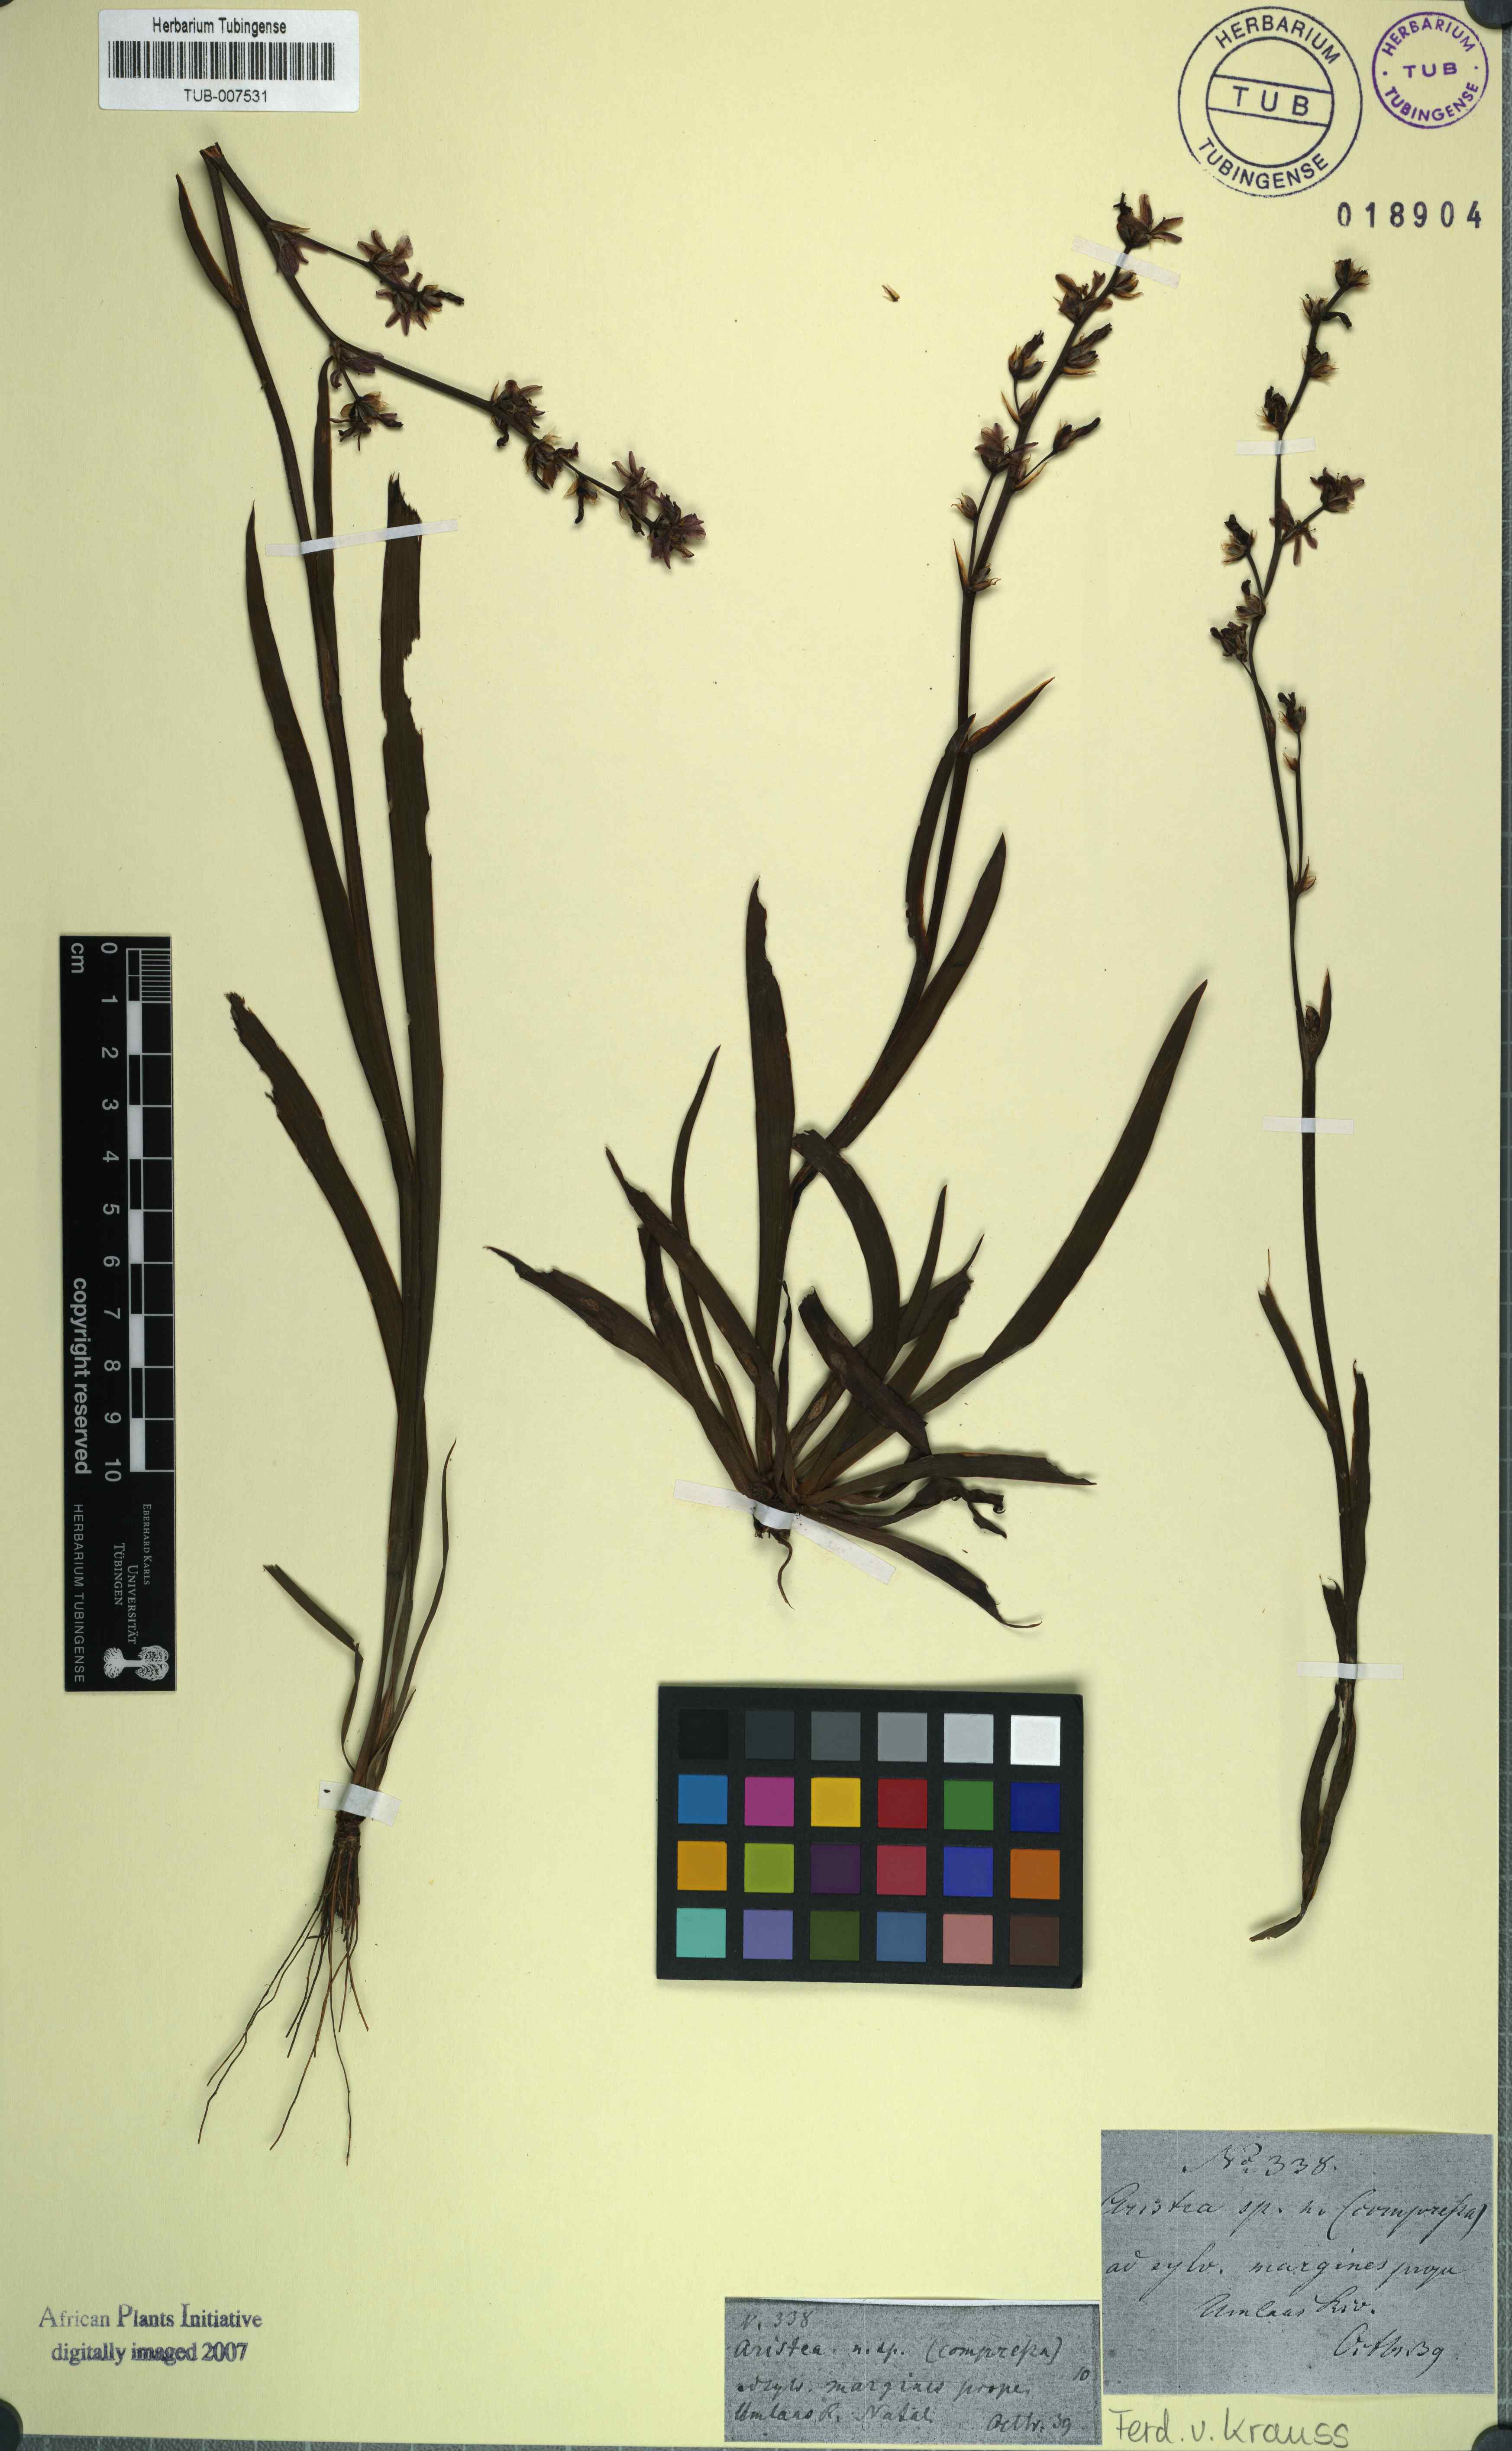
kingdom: Plantae
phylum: Tracheophyta
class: Liliopsida
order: Asparagales
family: Iridaceae
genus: Aristea
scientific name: Aristea compressa
